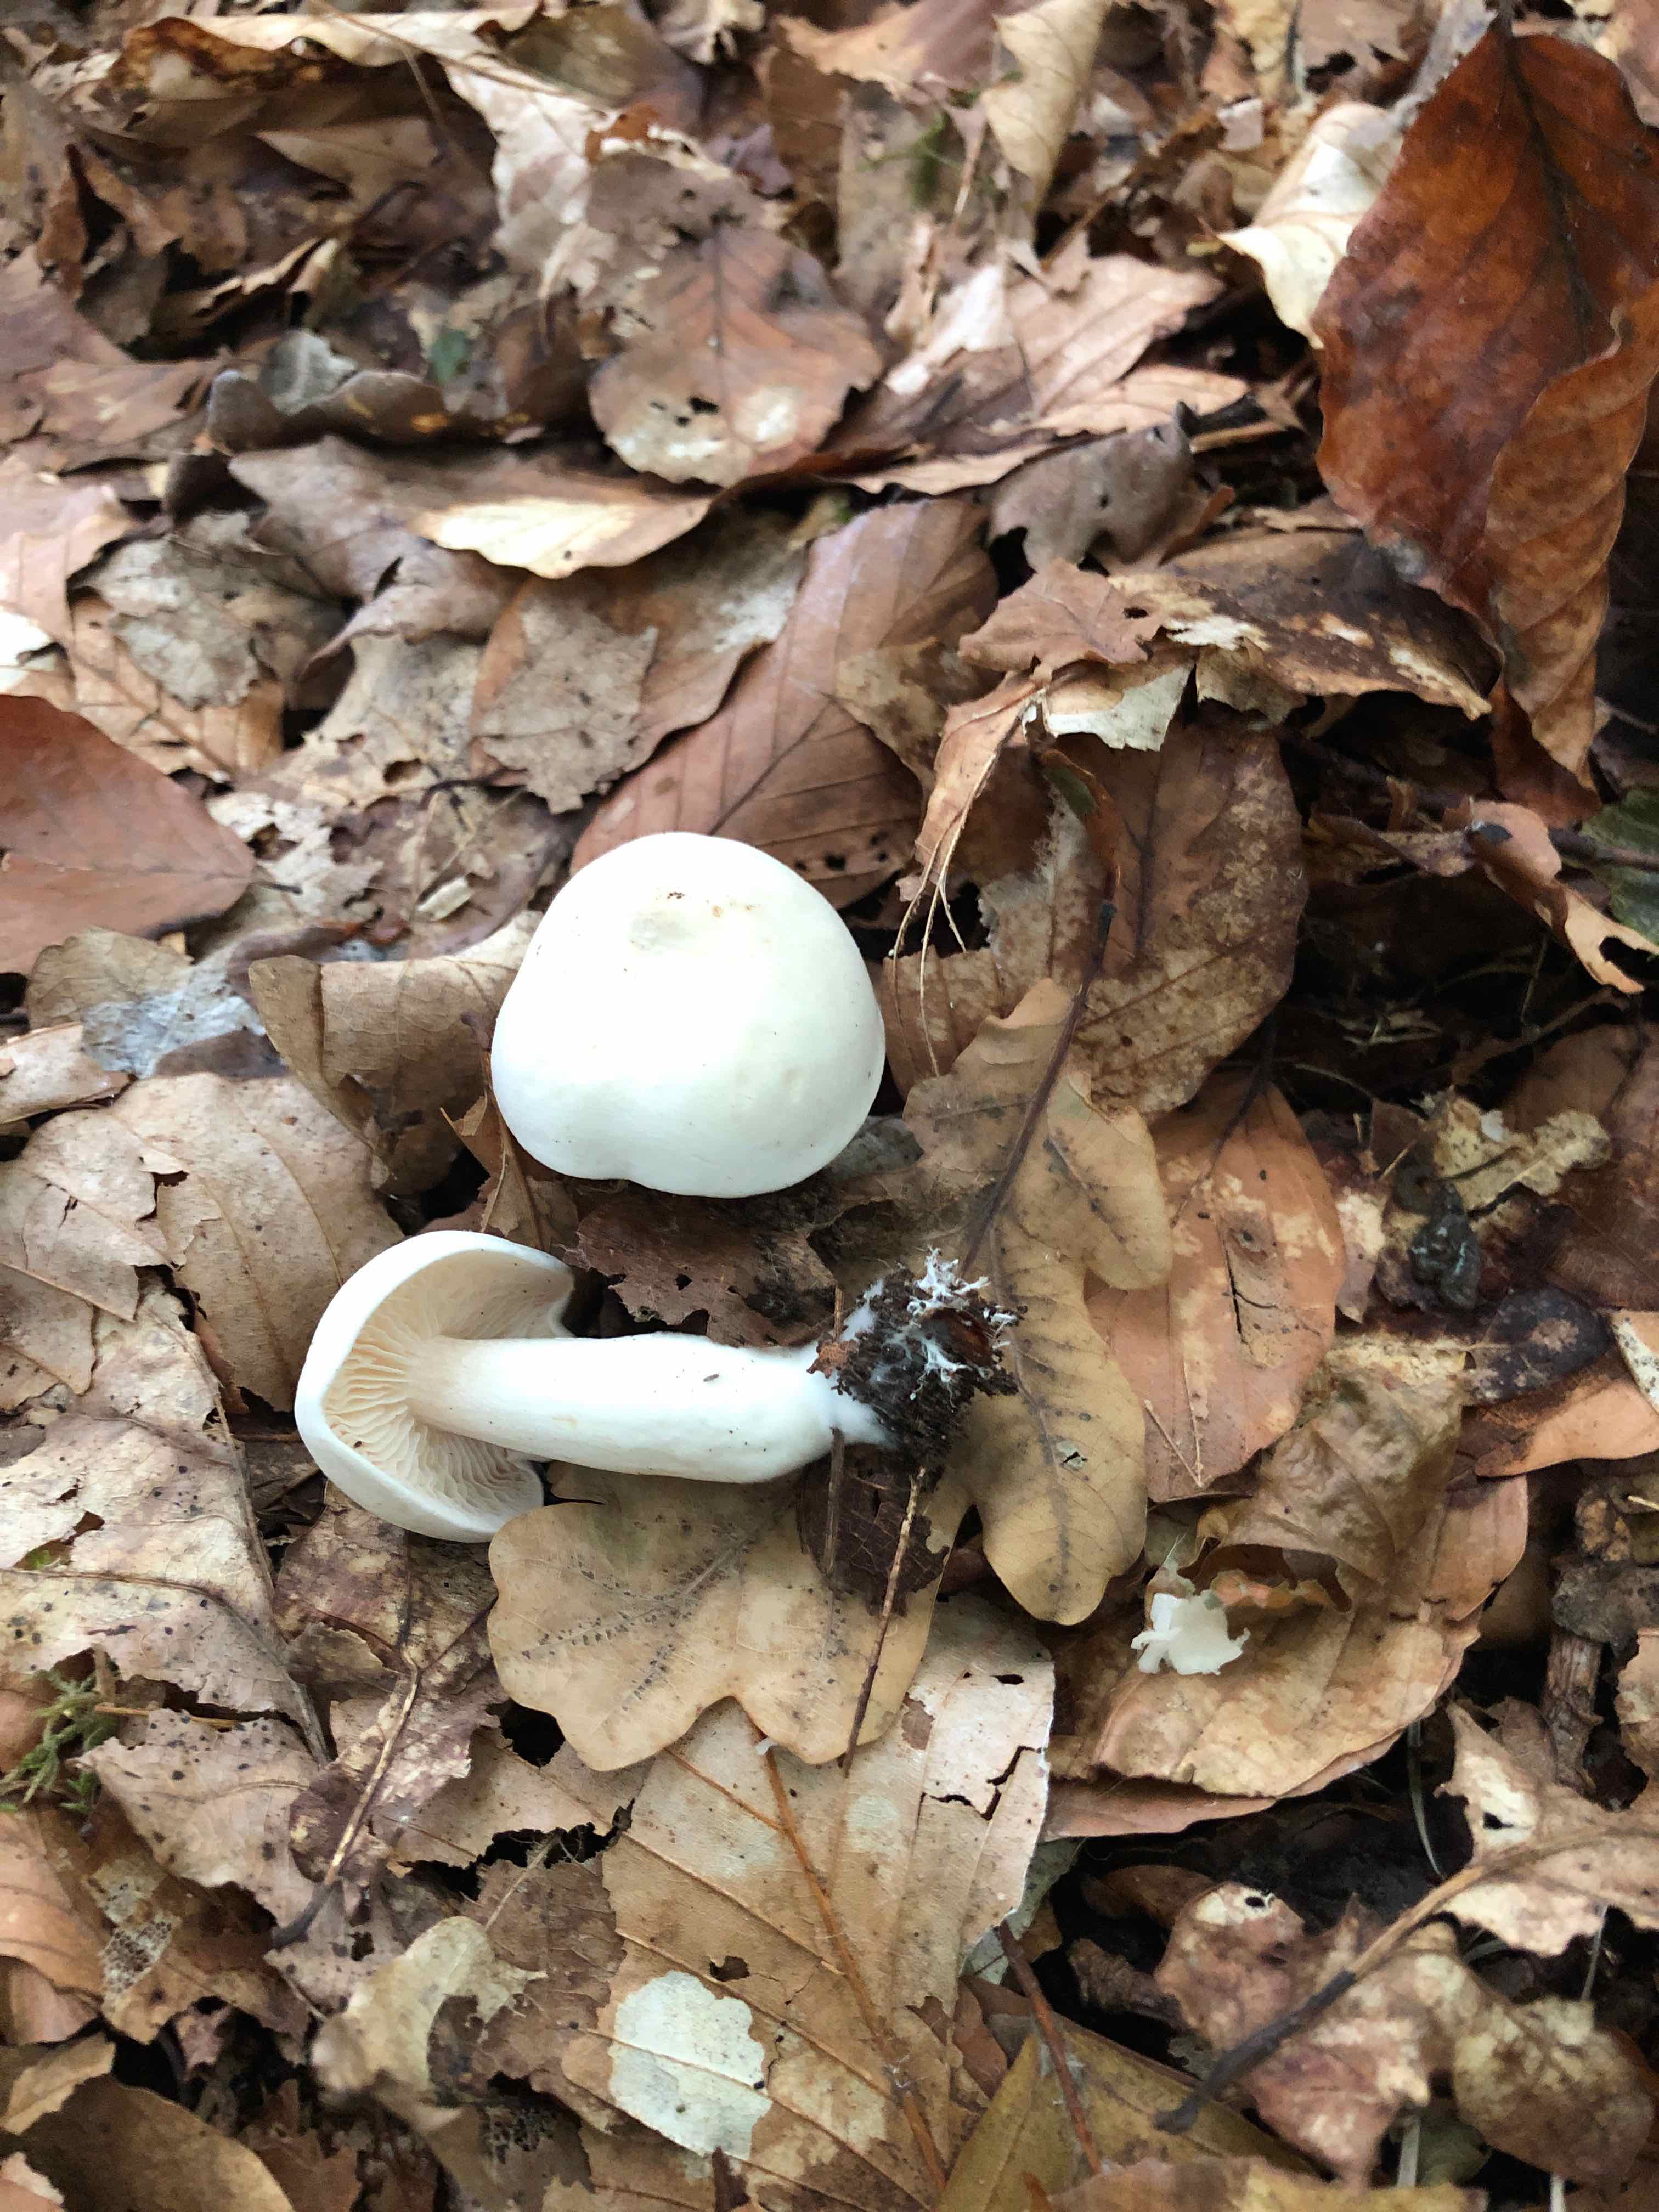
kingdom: Fungi
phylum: Basidiomycota
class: Agaricomycetes
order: Agaricales
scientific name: Agaricales
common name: champignonordenen
